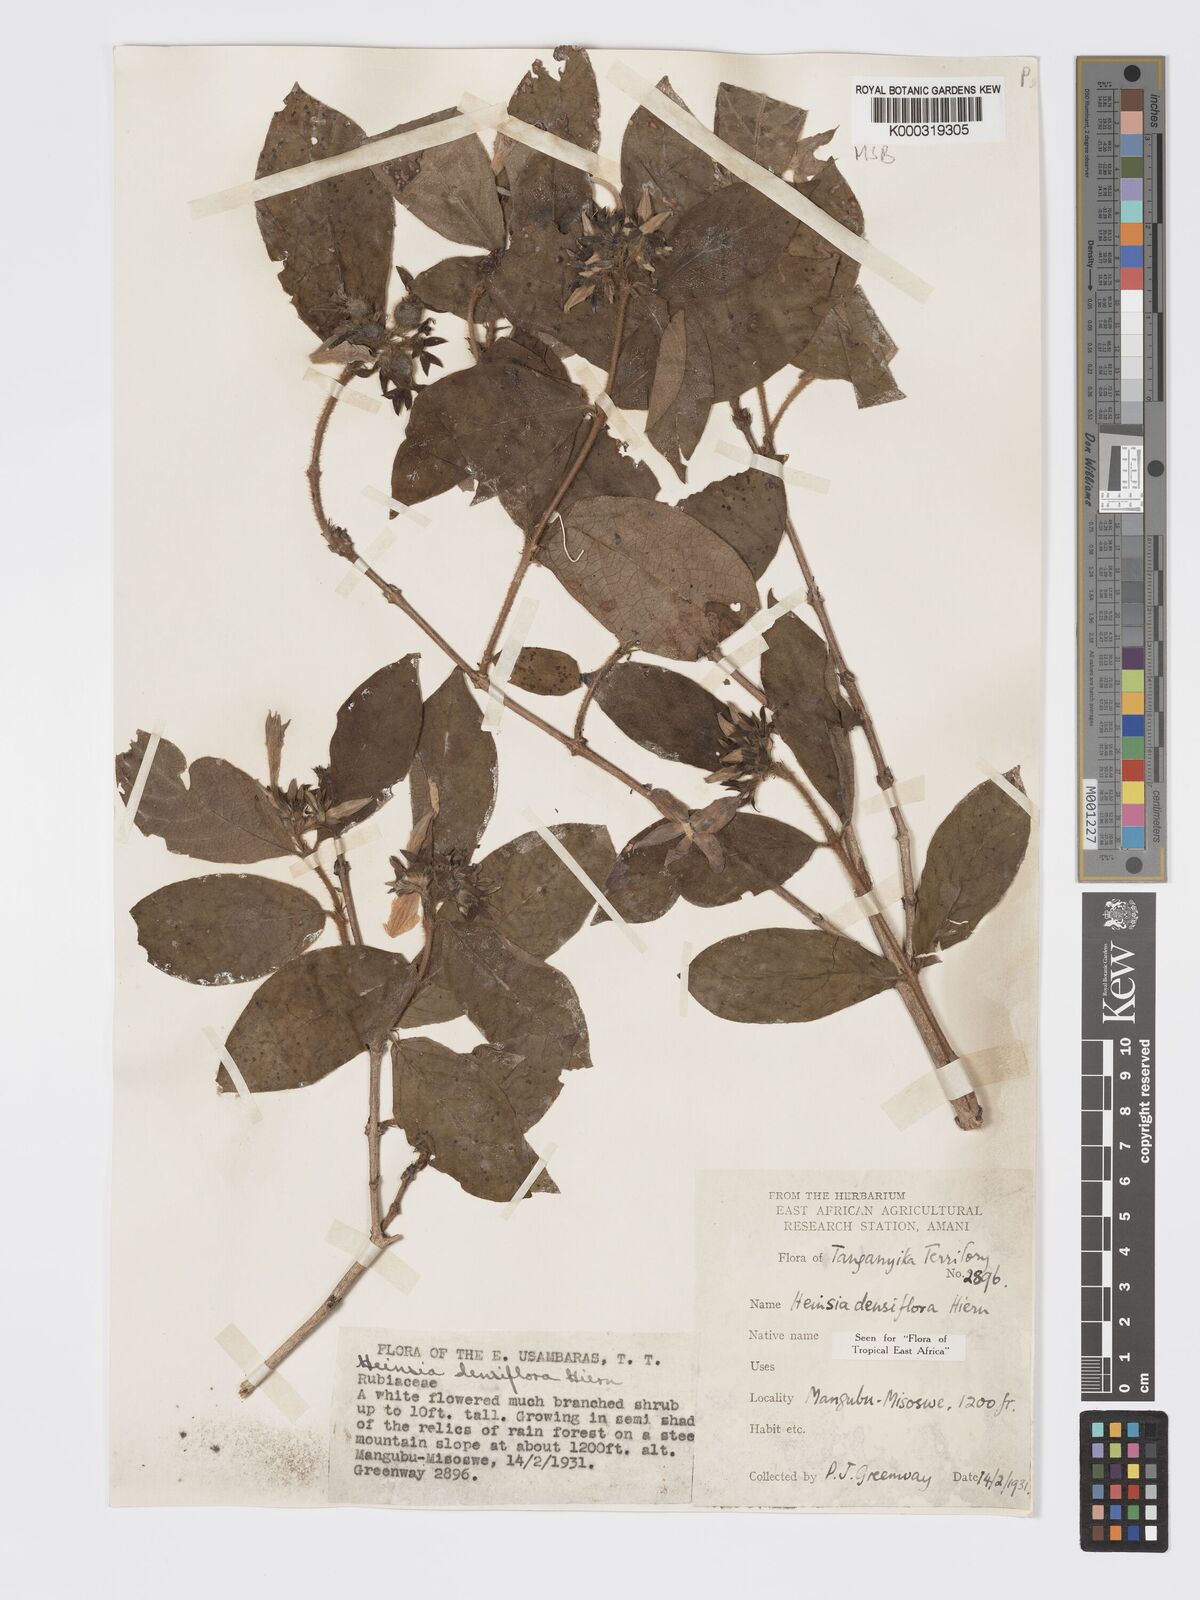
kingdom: Plantae
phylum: Tracheophyta
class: Magnoliopsida
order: Gentianales
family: Rubiaceae
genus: Heinsia
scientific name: Heinsia zanzibarica
